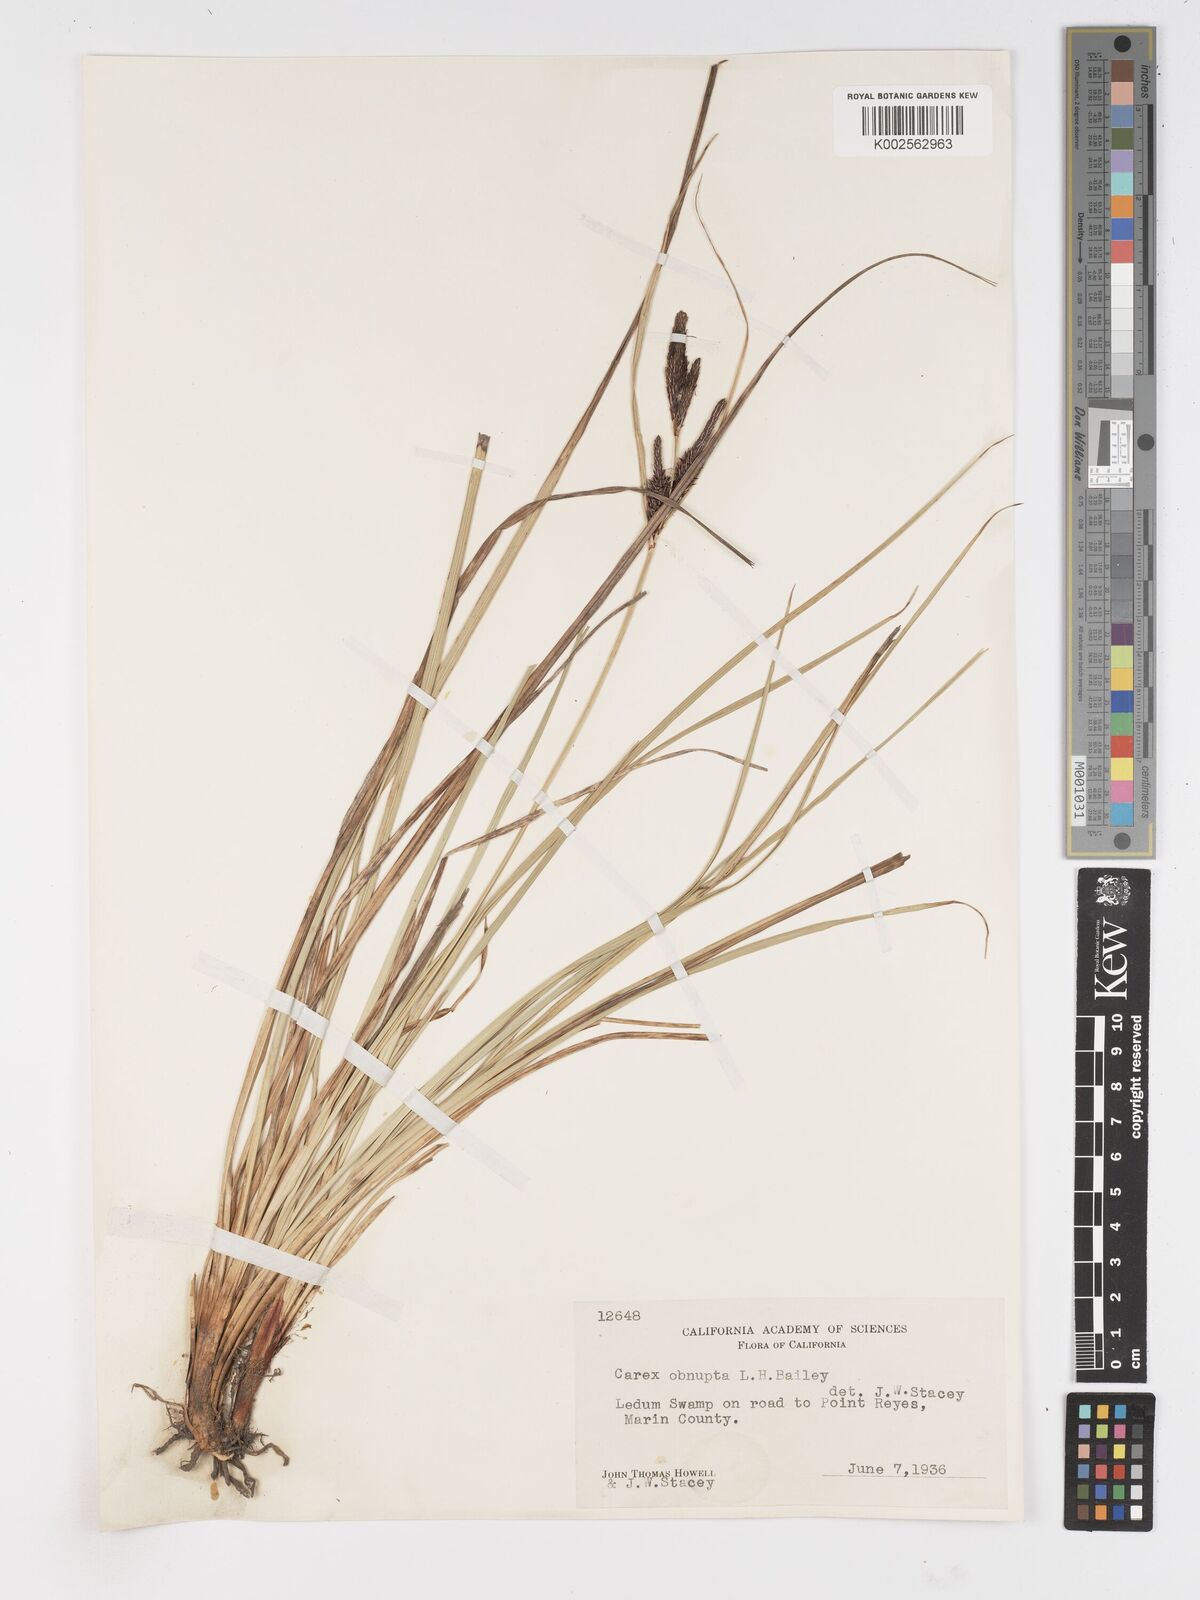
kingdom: Plantae
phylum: Tracheophyta
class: Liliopsida
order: Poales
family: Cyperaceae
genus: Carex
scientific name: Carex obnupta
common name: Slough sedge
